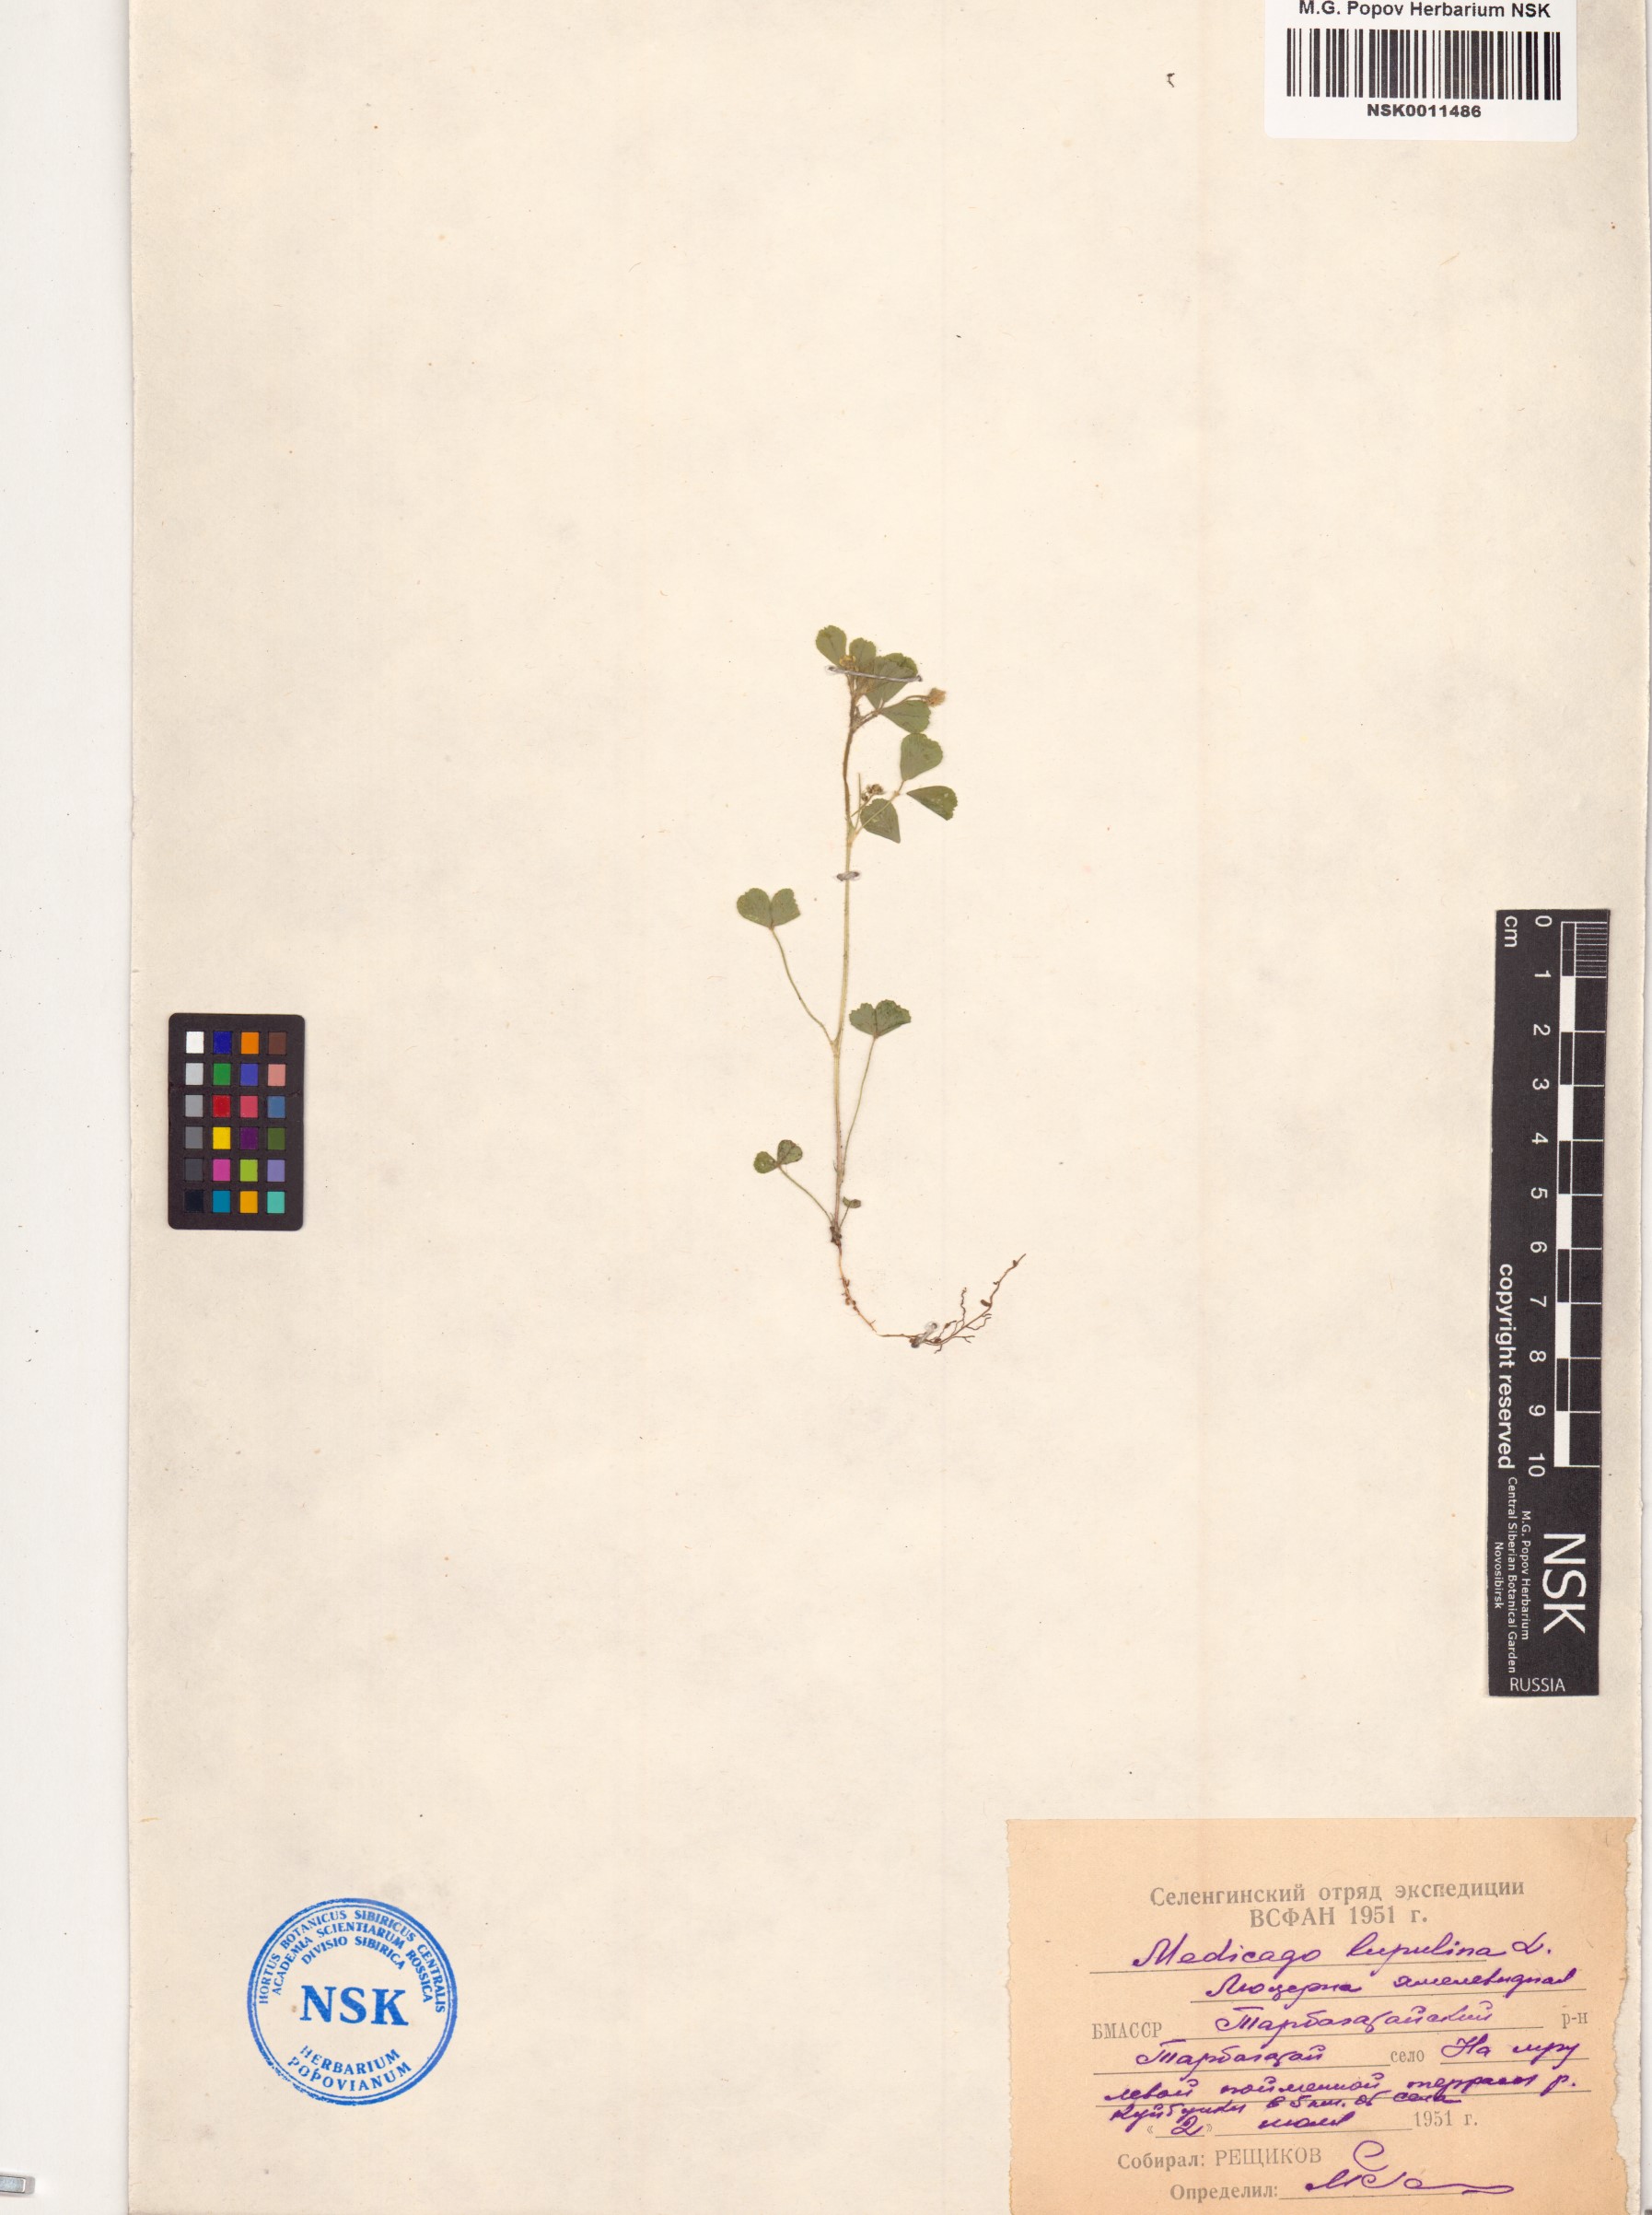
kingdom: Plantae
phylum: Tracheophyta
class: Magnoliopsida
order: Fabales
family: Fabaceae
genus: Medicago
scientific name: Medicago lupulina
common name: Black medick
